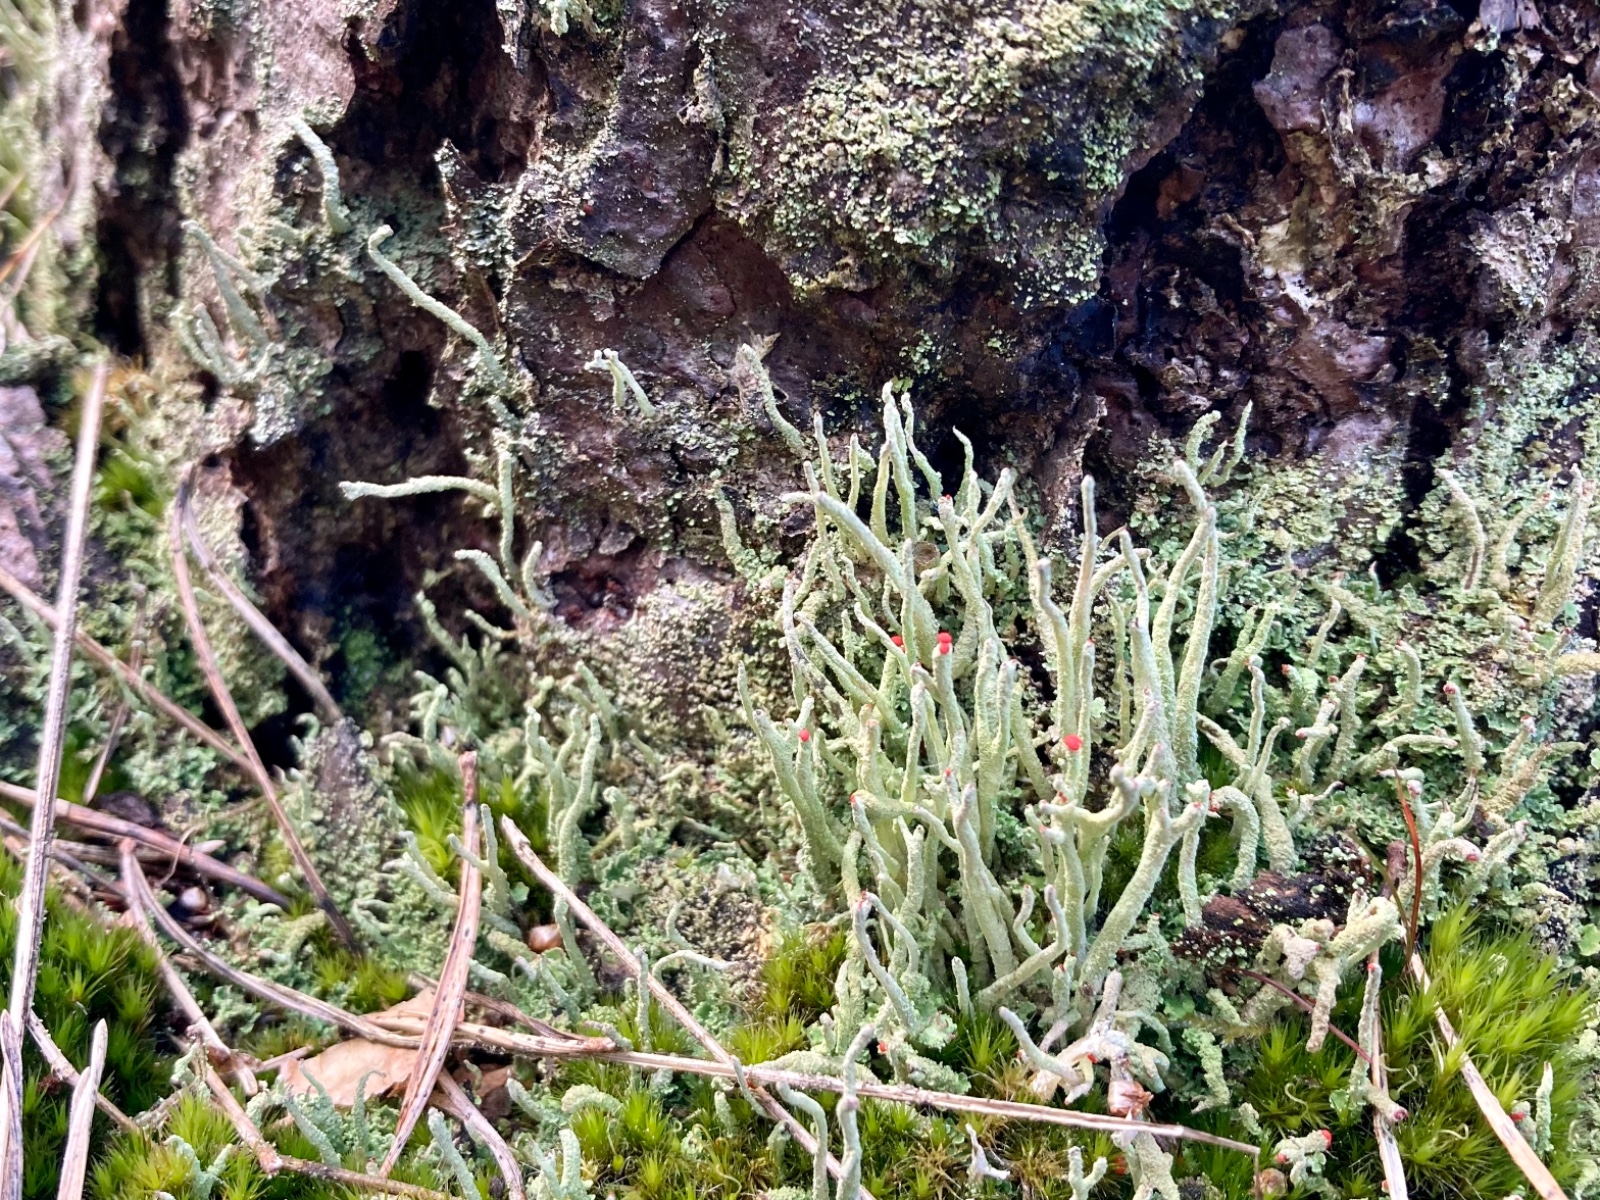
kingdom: Fungi
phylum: Ascomycota
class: Lecanoromycetes
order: Lecanorales
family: Cladoniaceae
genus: Cladonia
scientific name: Cladonia macilenta
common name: indsvunden bægerlav
